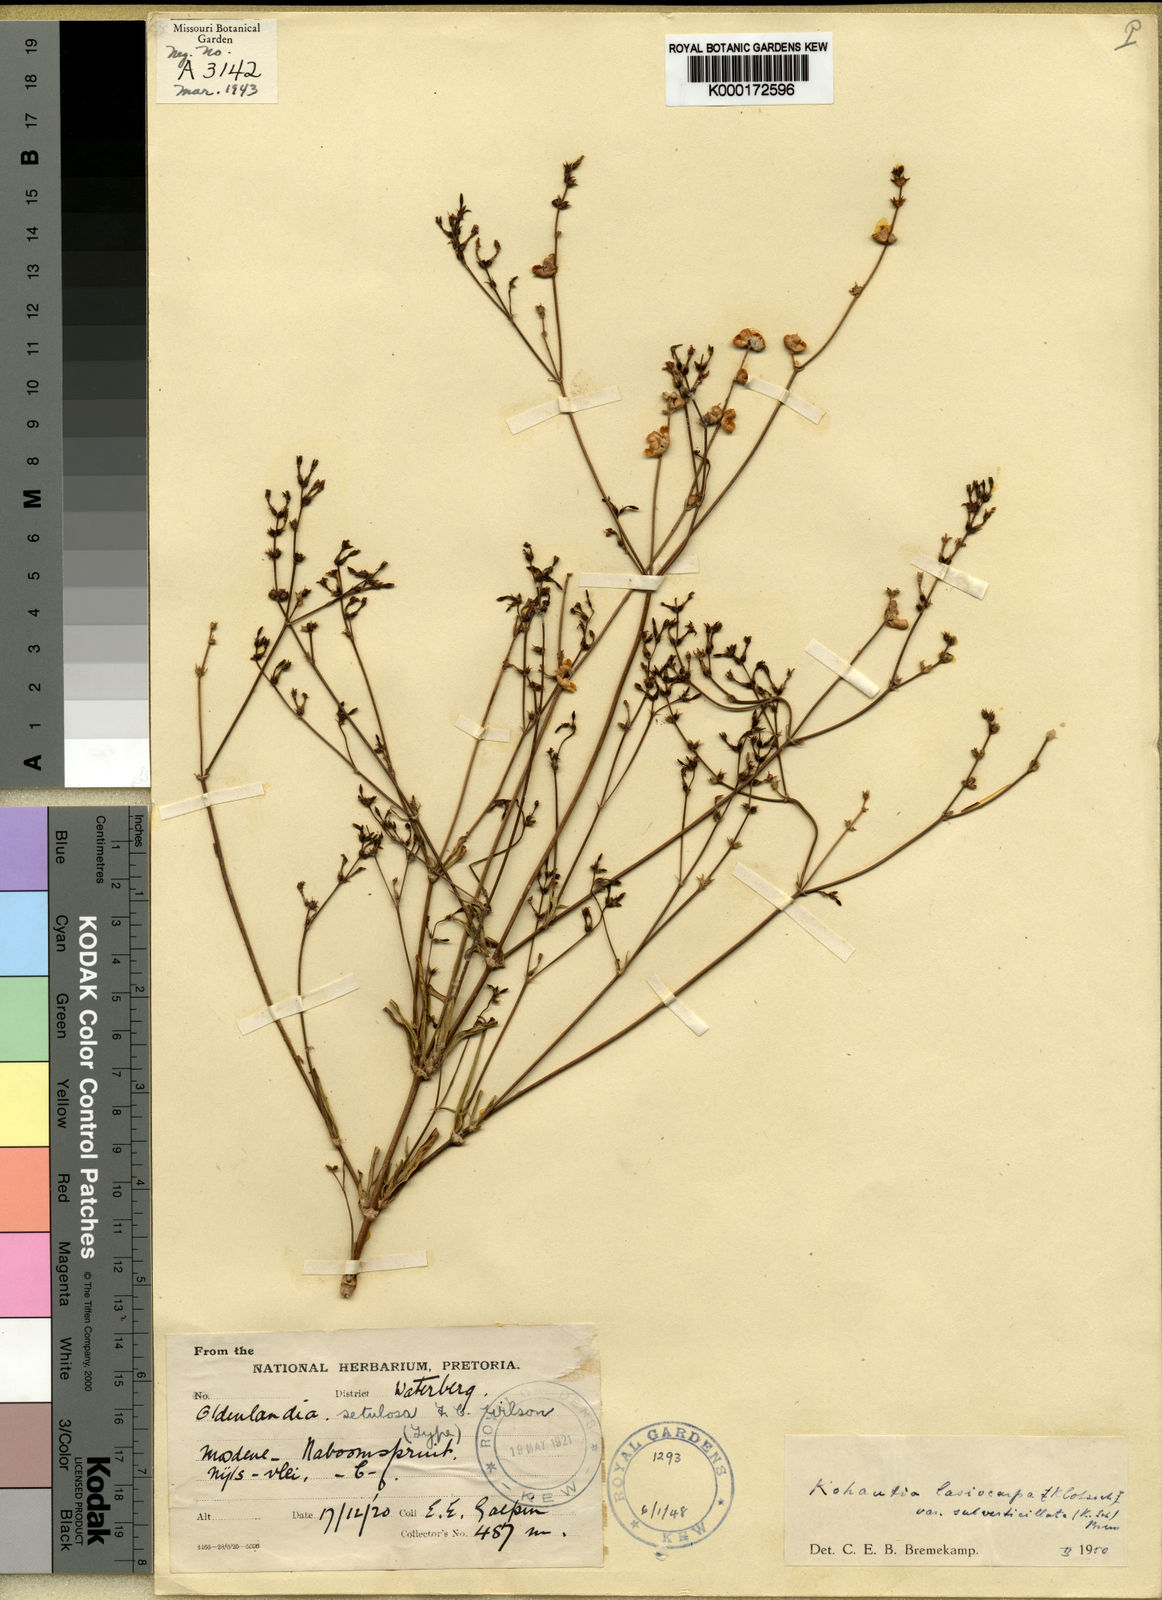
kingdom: Plantae
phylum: Tracheophyta
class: Magnoliopsida
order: Gentianales
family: Rubiaceae
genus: Kohautia
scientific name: Kohautia
